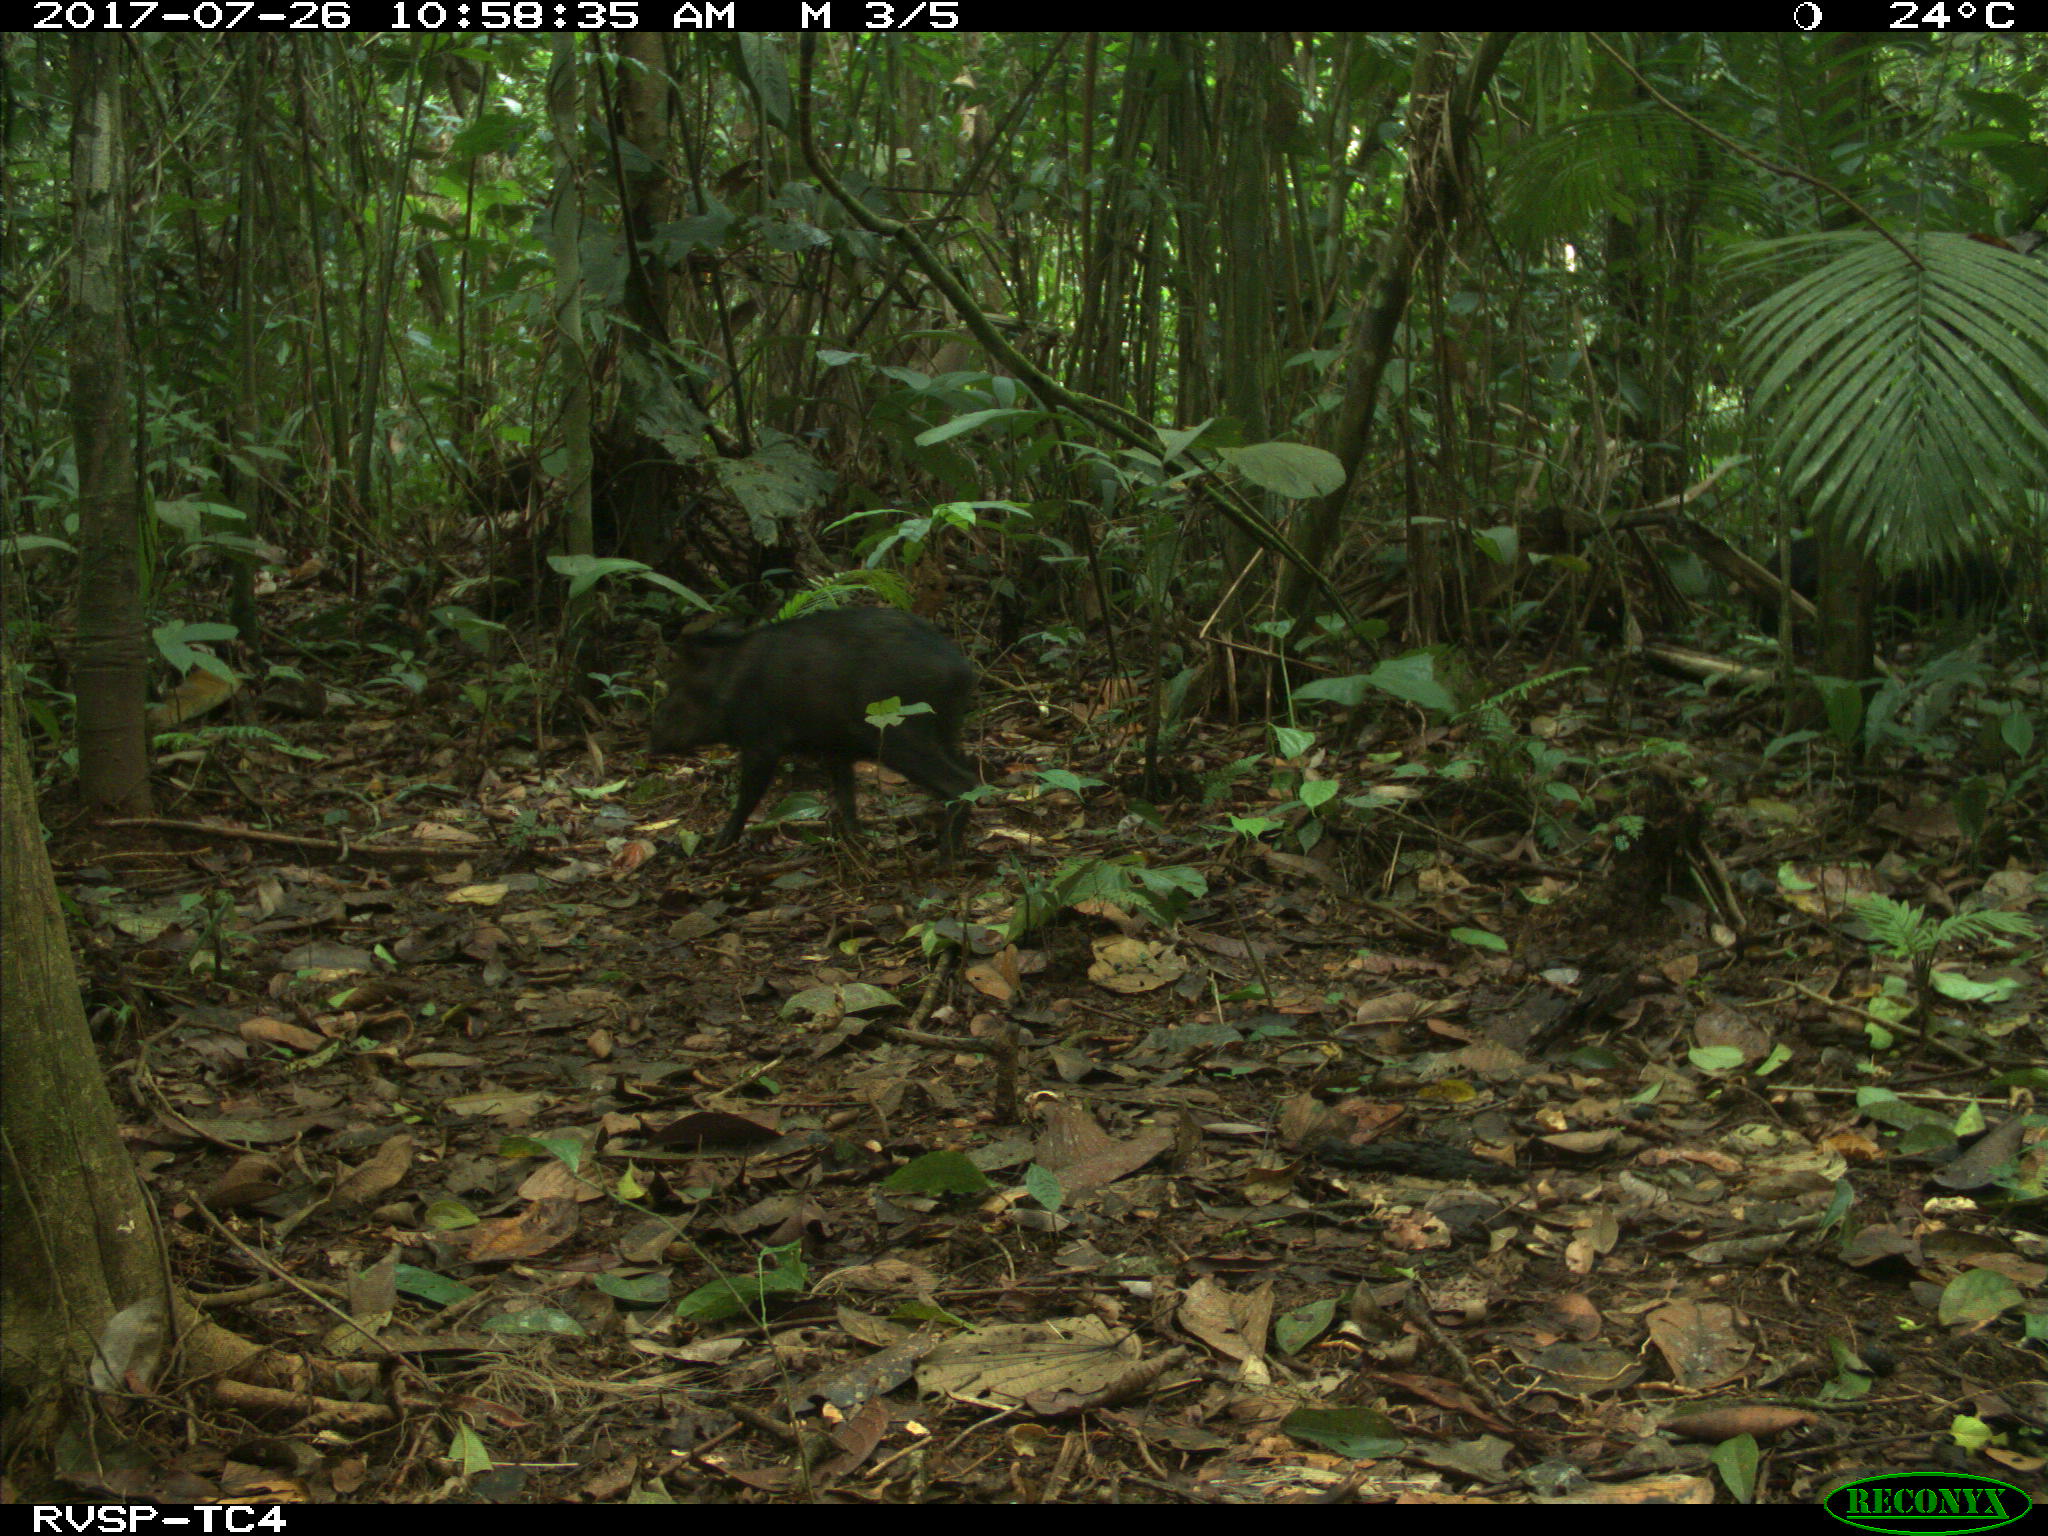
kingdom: Animalia
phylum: Chordata
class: Mammalia
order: Artiodactyla
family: Tayassuidae
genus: Pecari
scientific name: Pecari tajacu
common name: Collared peccary
